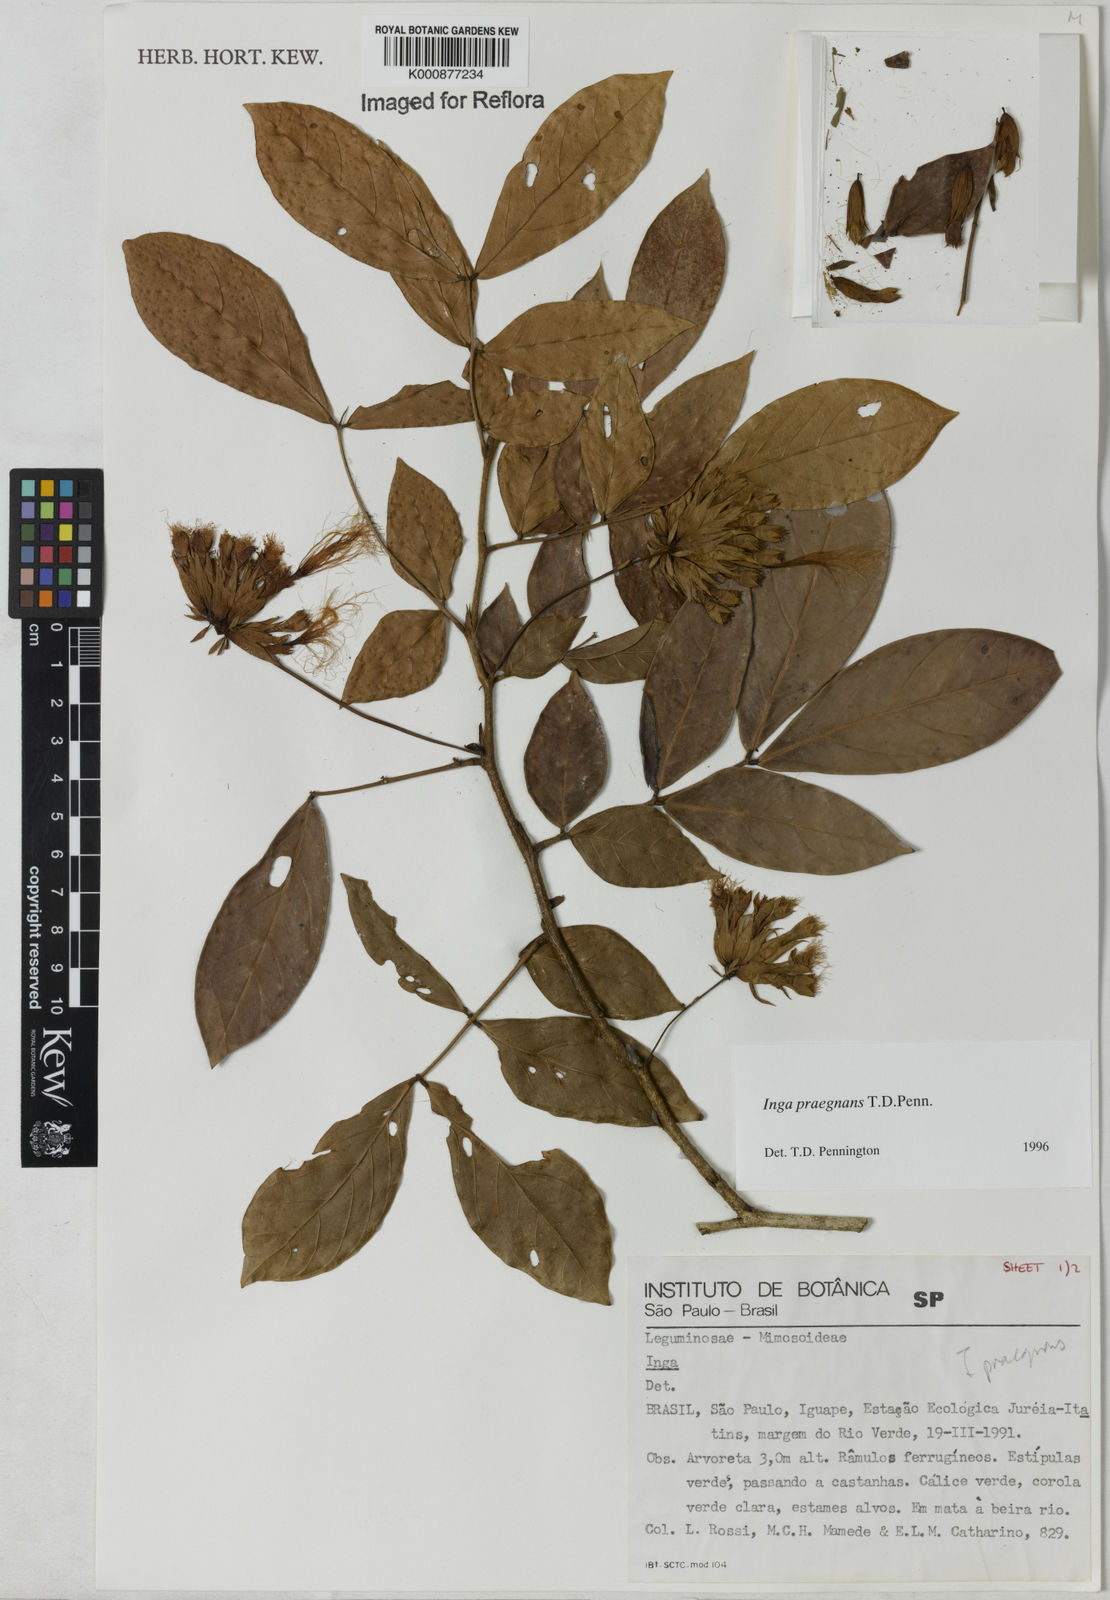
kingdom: Plantae
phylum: Tracheophyta
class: Magnoliopsida
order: Fabales
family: Fabaceae
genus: Inga
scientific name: Inga praegnans
